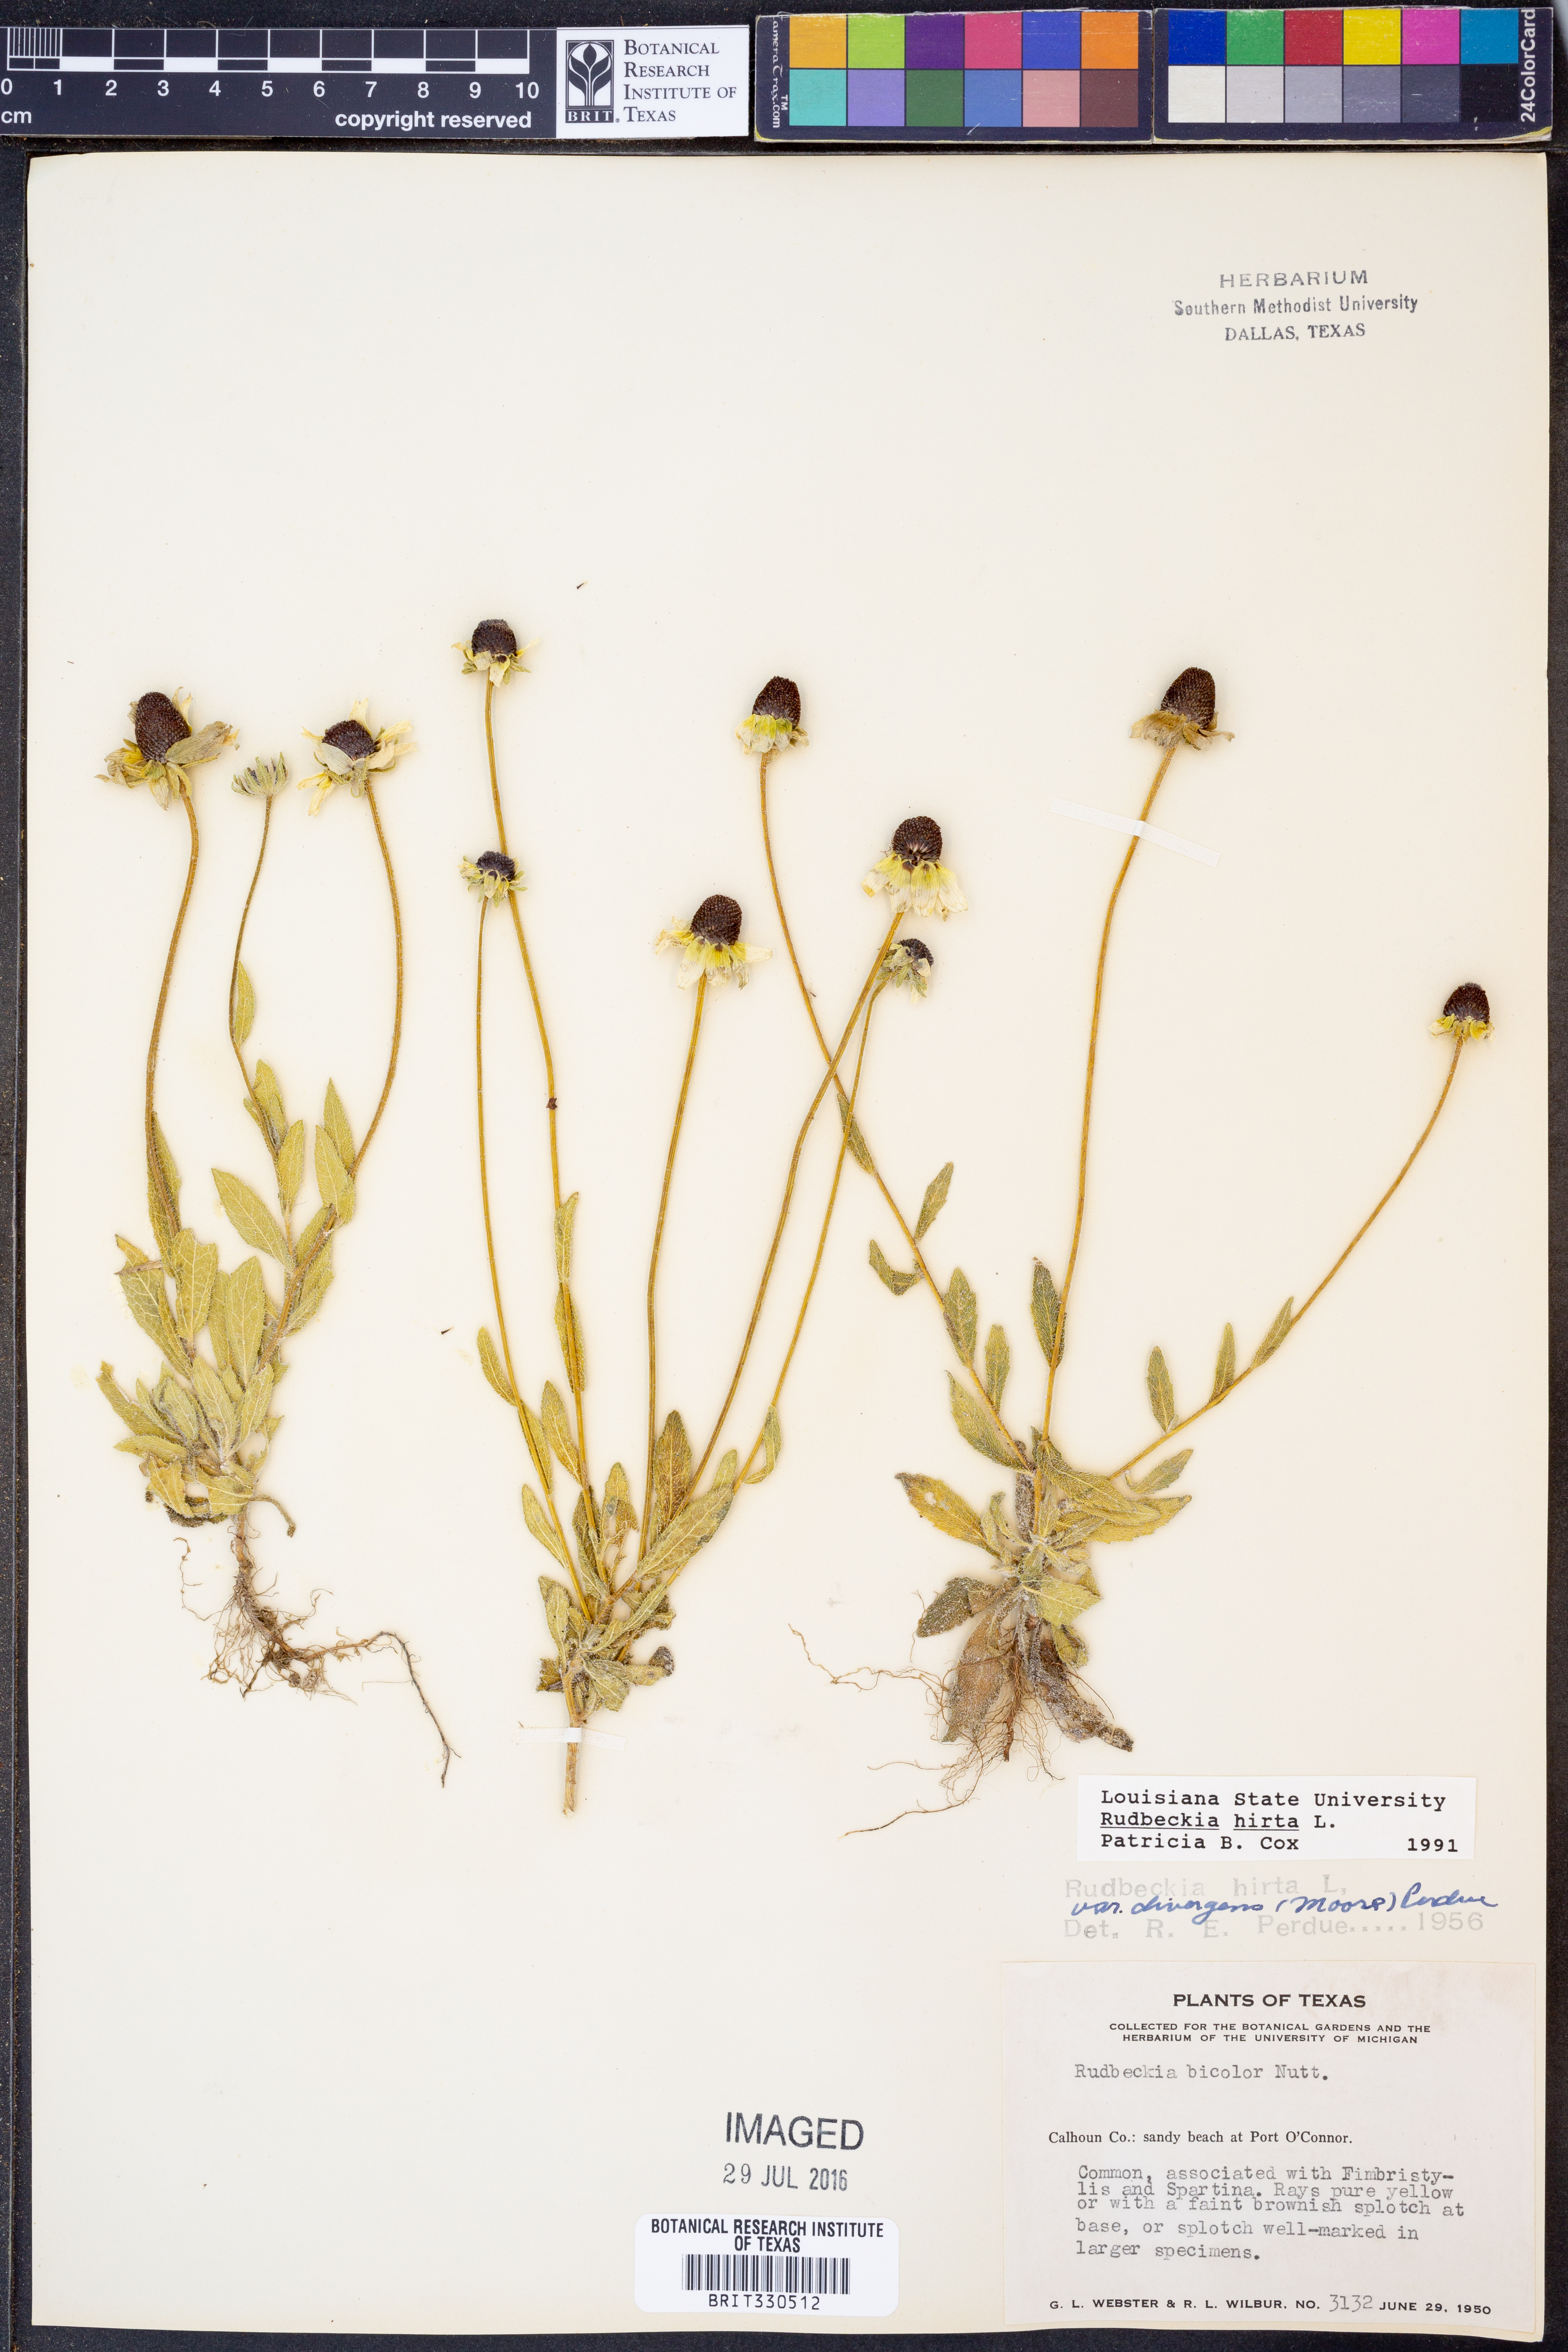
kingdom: Plantae
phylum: Tracheophyta
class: Magnoliopsida
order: Asterales
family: Asteraceae
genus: Rudbeckia
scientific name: Rudbeckia hirta
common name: Black-eyed-susan
